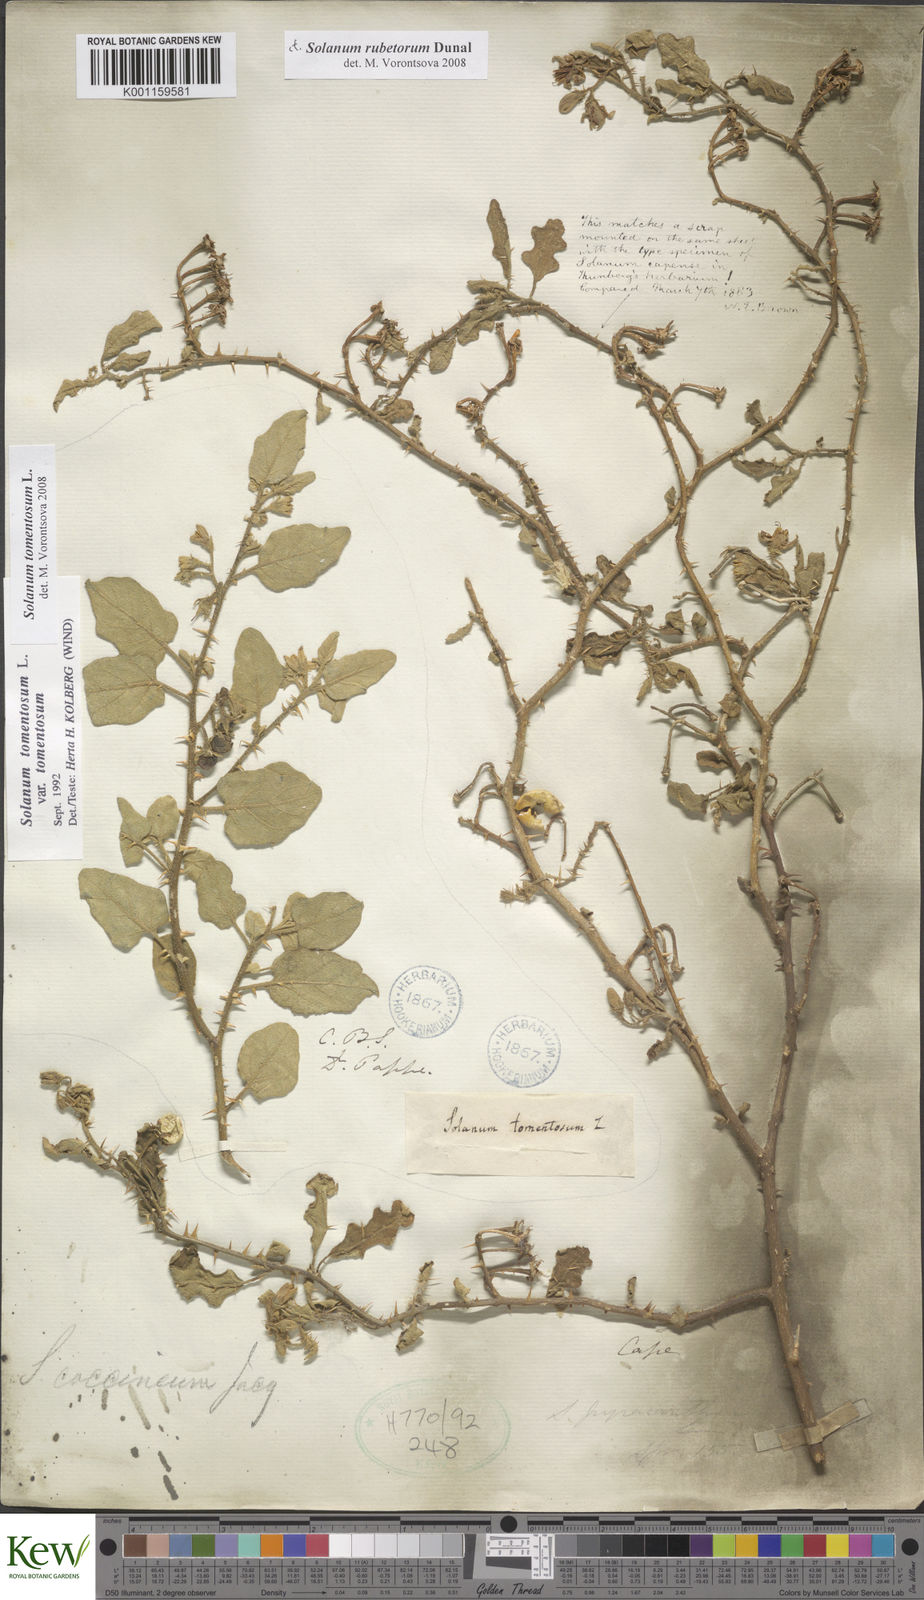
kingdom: Plantae
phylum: Tracheophyta
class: Magnoliopsida
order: Solanales
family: Solanaceae
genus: Solanum
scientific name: Solanum tomentosum
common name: Wild aubergine
